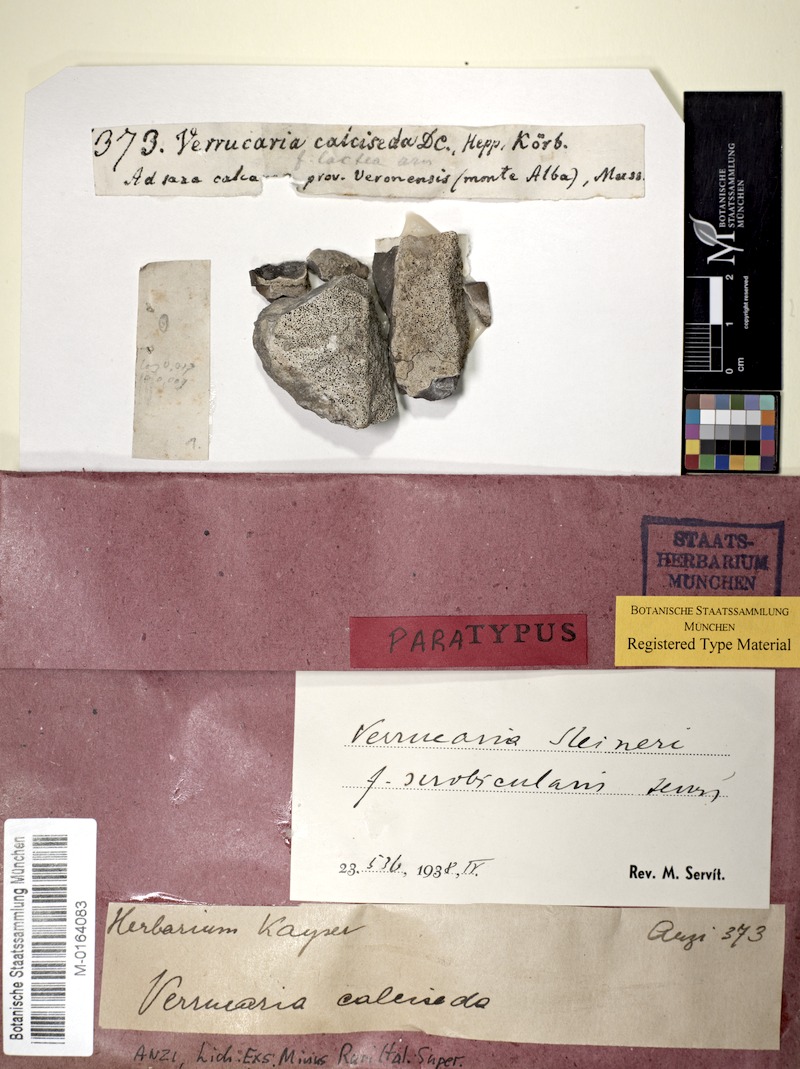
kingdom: Fungi
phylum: Ascomycota
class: Eurotiomycetes
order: Verrucariales
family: Verrucariaceae
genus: Bagliettoa
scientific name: Bagliettoa steineri
